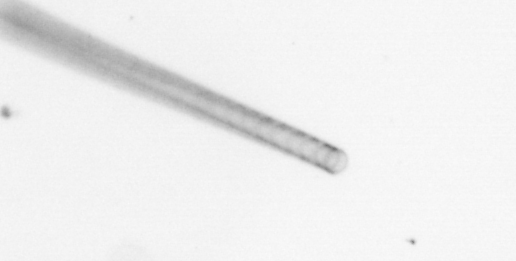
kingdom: Chromista
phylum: Ochrophyta
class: Bacillariophyceae
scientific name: Bacillariophyceae
